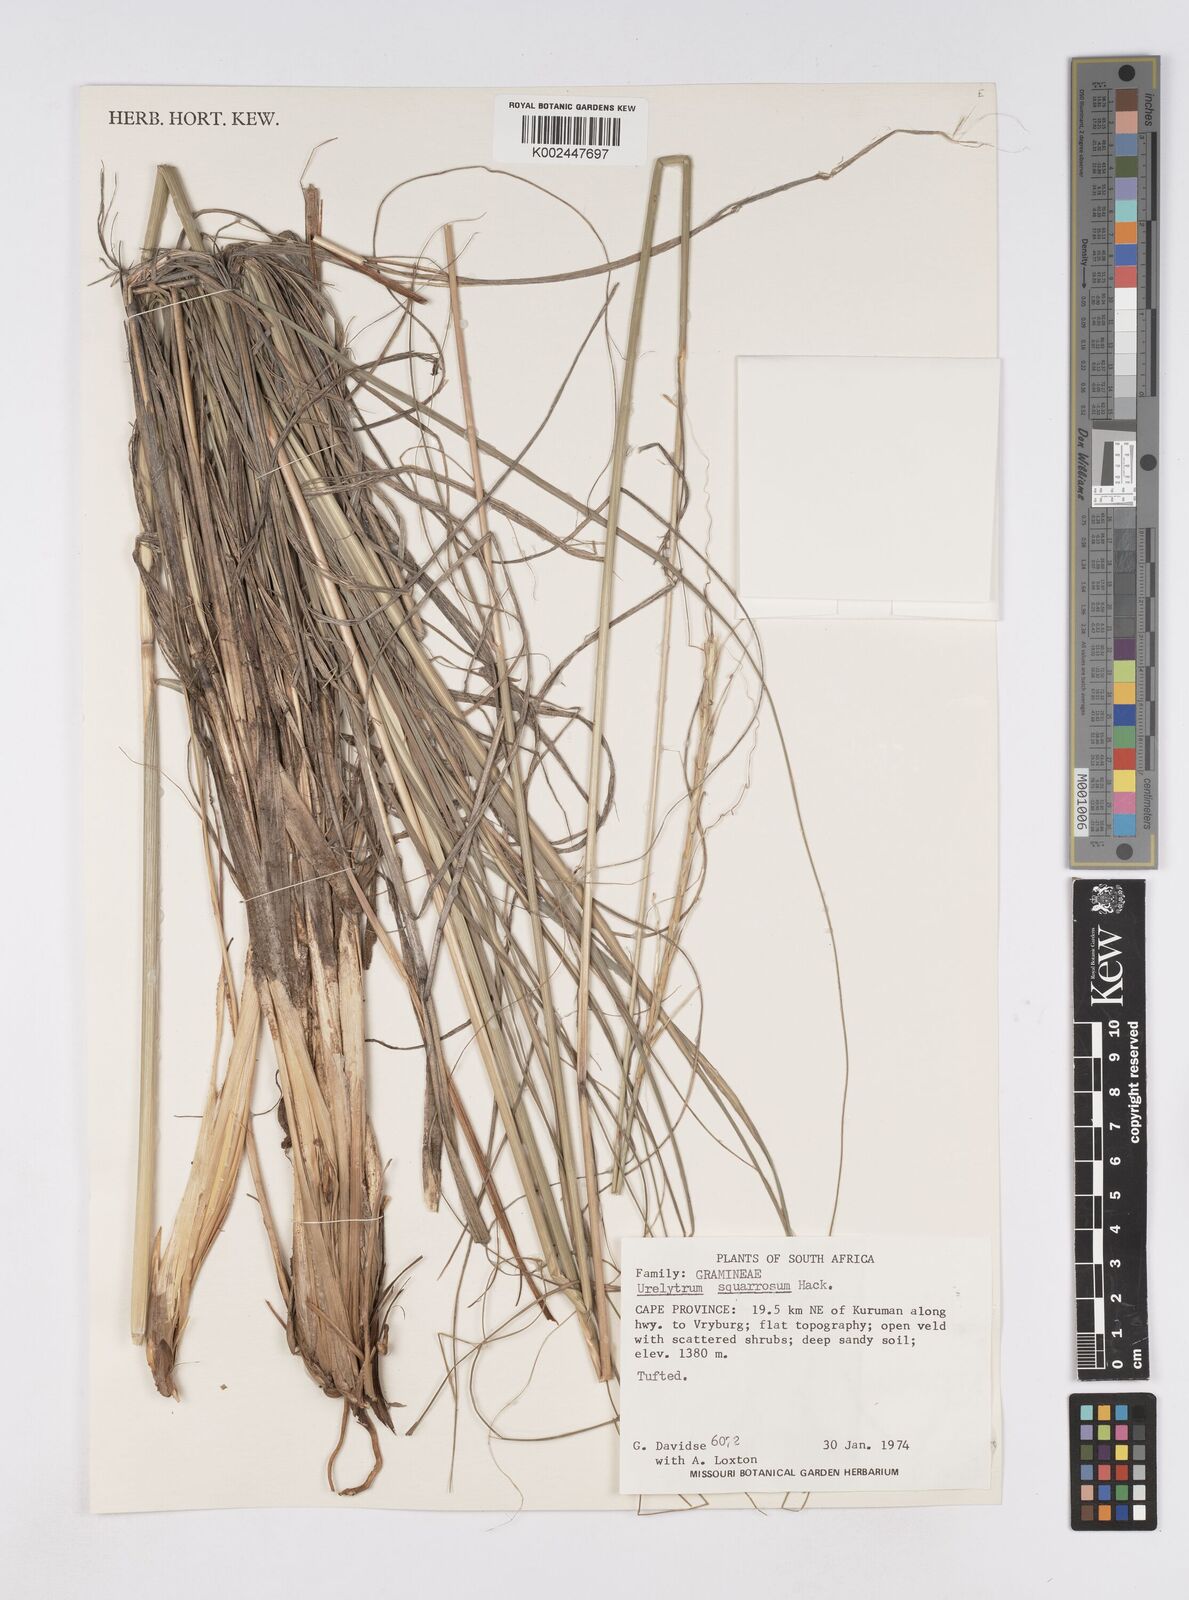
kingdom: Plantae
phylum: Tracheophyta
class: Liliopsida
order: Poales
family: Poaceae
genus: Urelytrum
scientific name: Urelytrum agropyroides
